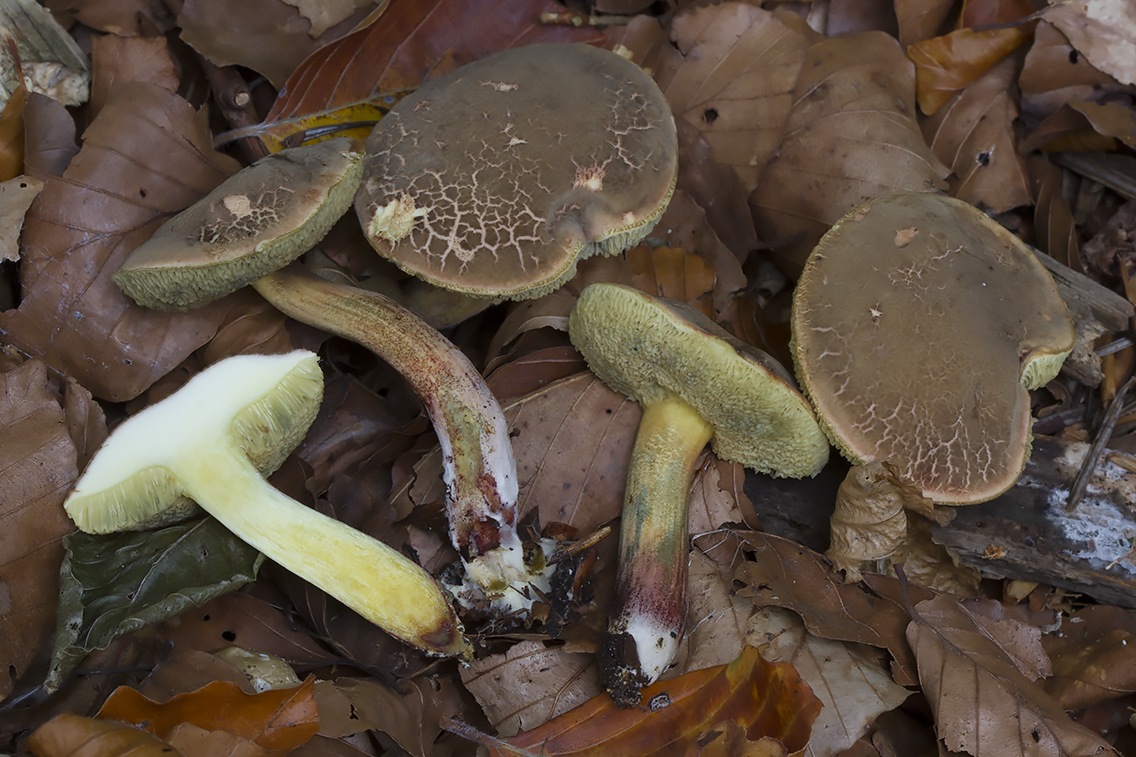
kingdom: Fungi
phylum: Basidiomycota
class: Agaricomycetes
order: Boletales
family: Boletaceae
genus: Xerocomellus
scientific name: Xerocomellus chrysenteron
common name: rødsprukken rørhat
